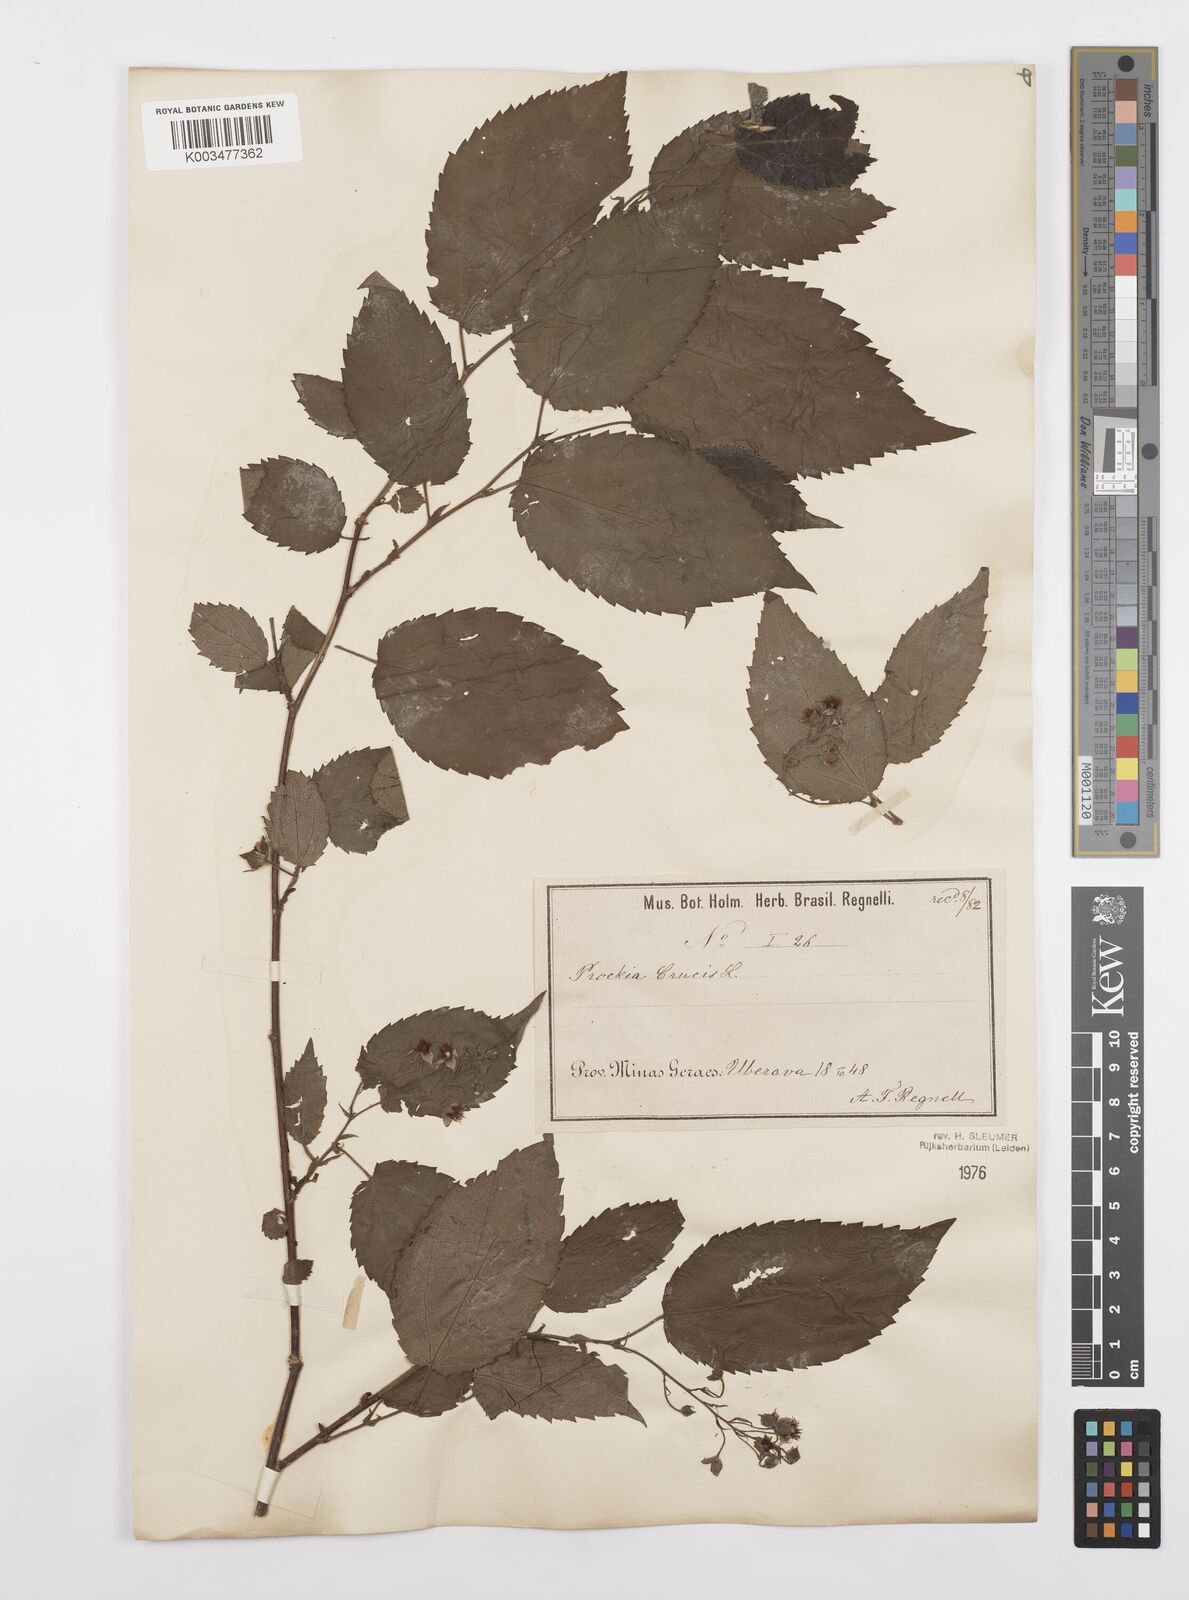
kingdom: Plantae
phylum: Tracheophyta
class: Magnoliopsida
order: Malpighiales
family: Salicaceae
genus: Prockia
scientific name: Prockia crucis
